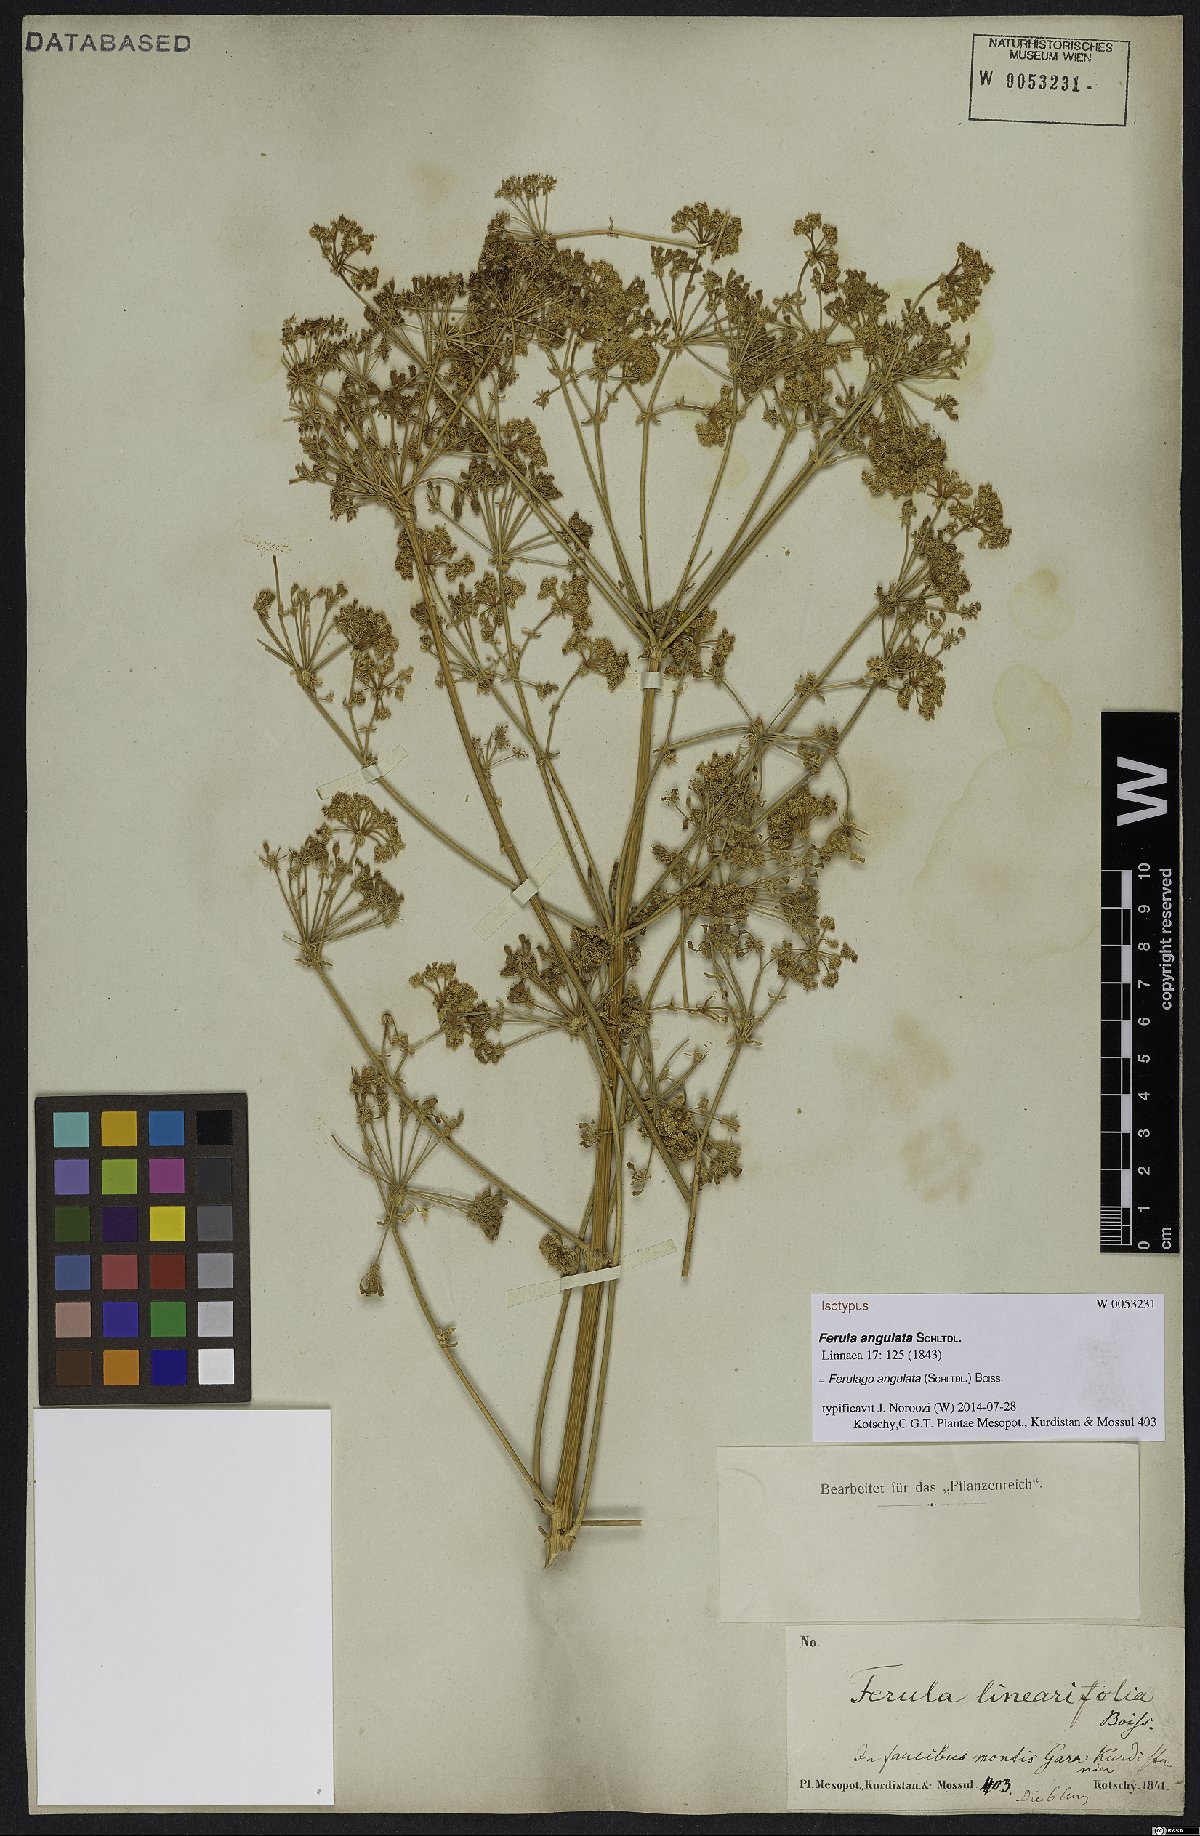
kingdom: Plantae
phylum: Tracheophyta
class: Magnoliopsida
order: Apiales
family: Apiaceae
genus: Ferulago
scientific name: Ferulago angulata
